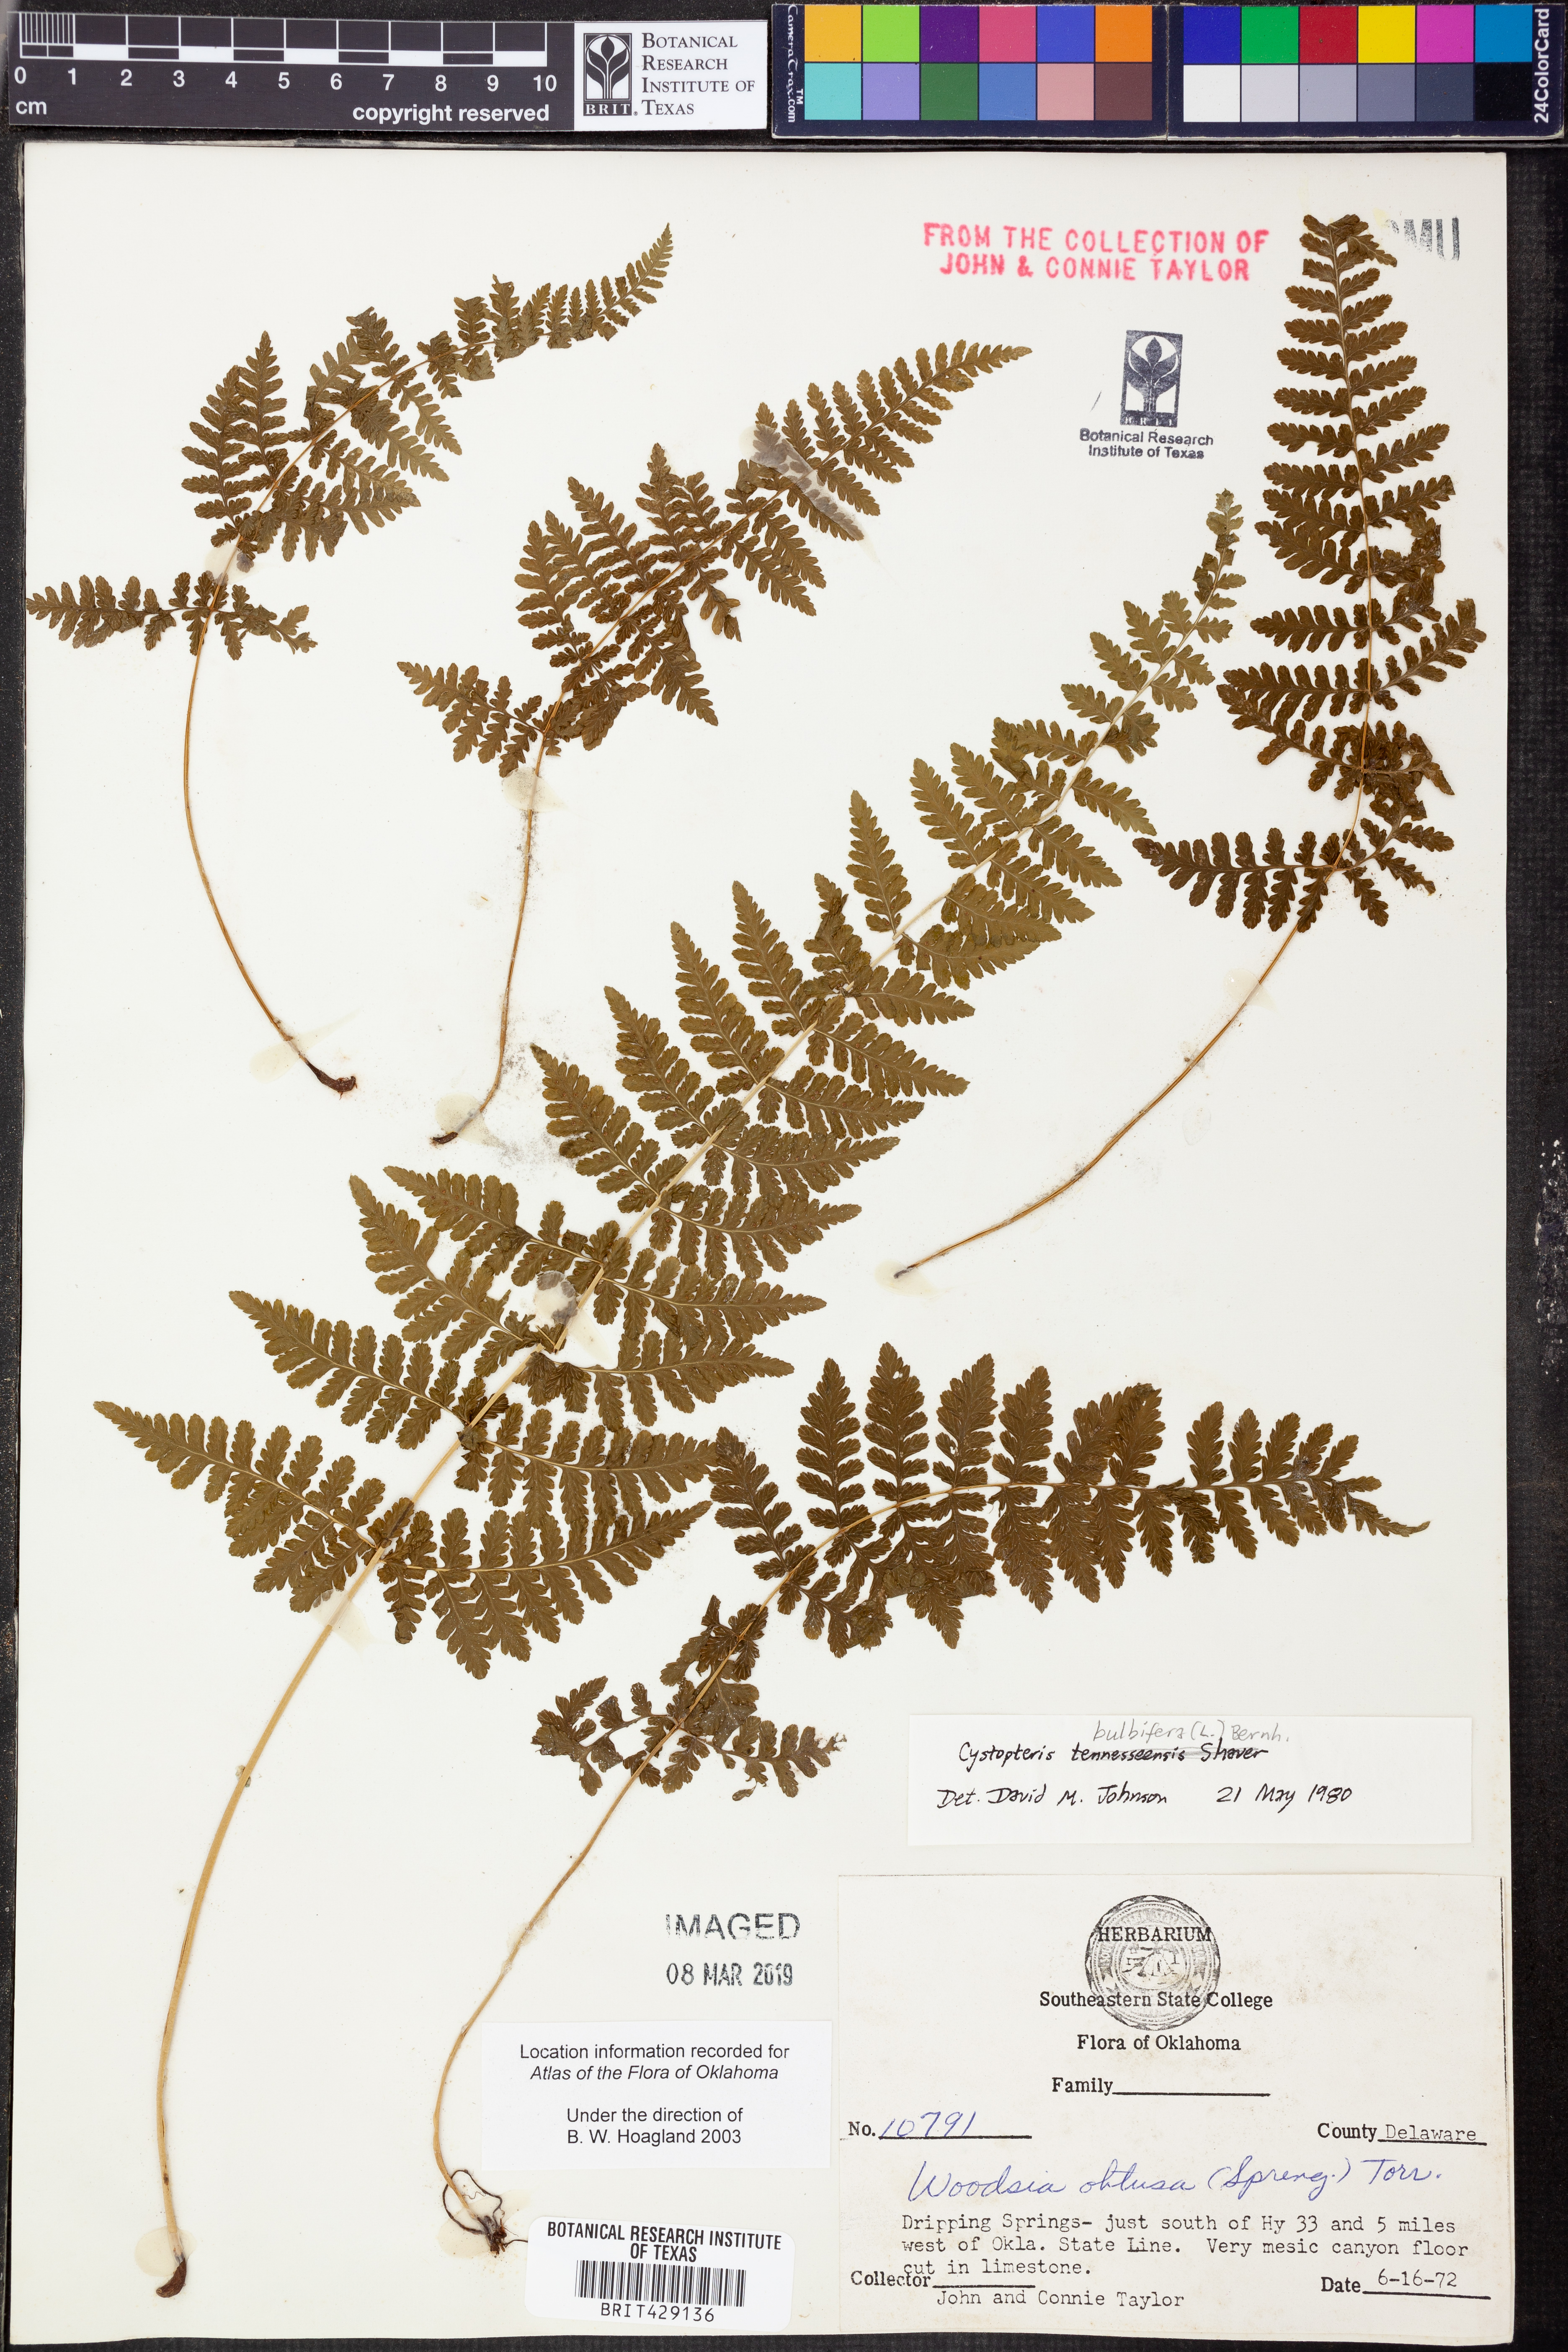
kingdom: Plantae
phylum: Tracheophyta
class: Polypodiopsida
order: Polypodiales
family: Cystopteridaceae
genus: Cystopteris
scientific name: Cystopteris bulbifera
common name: Bulblet bladder fern
